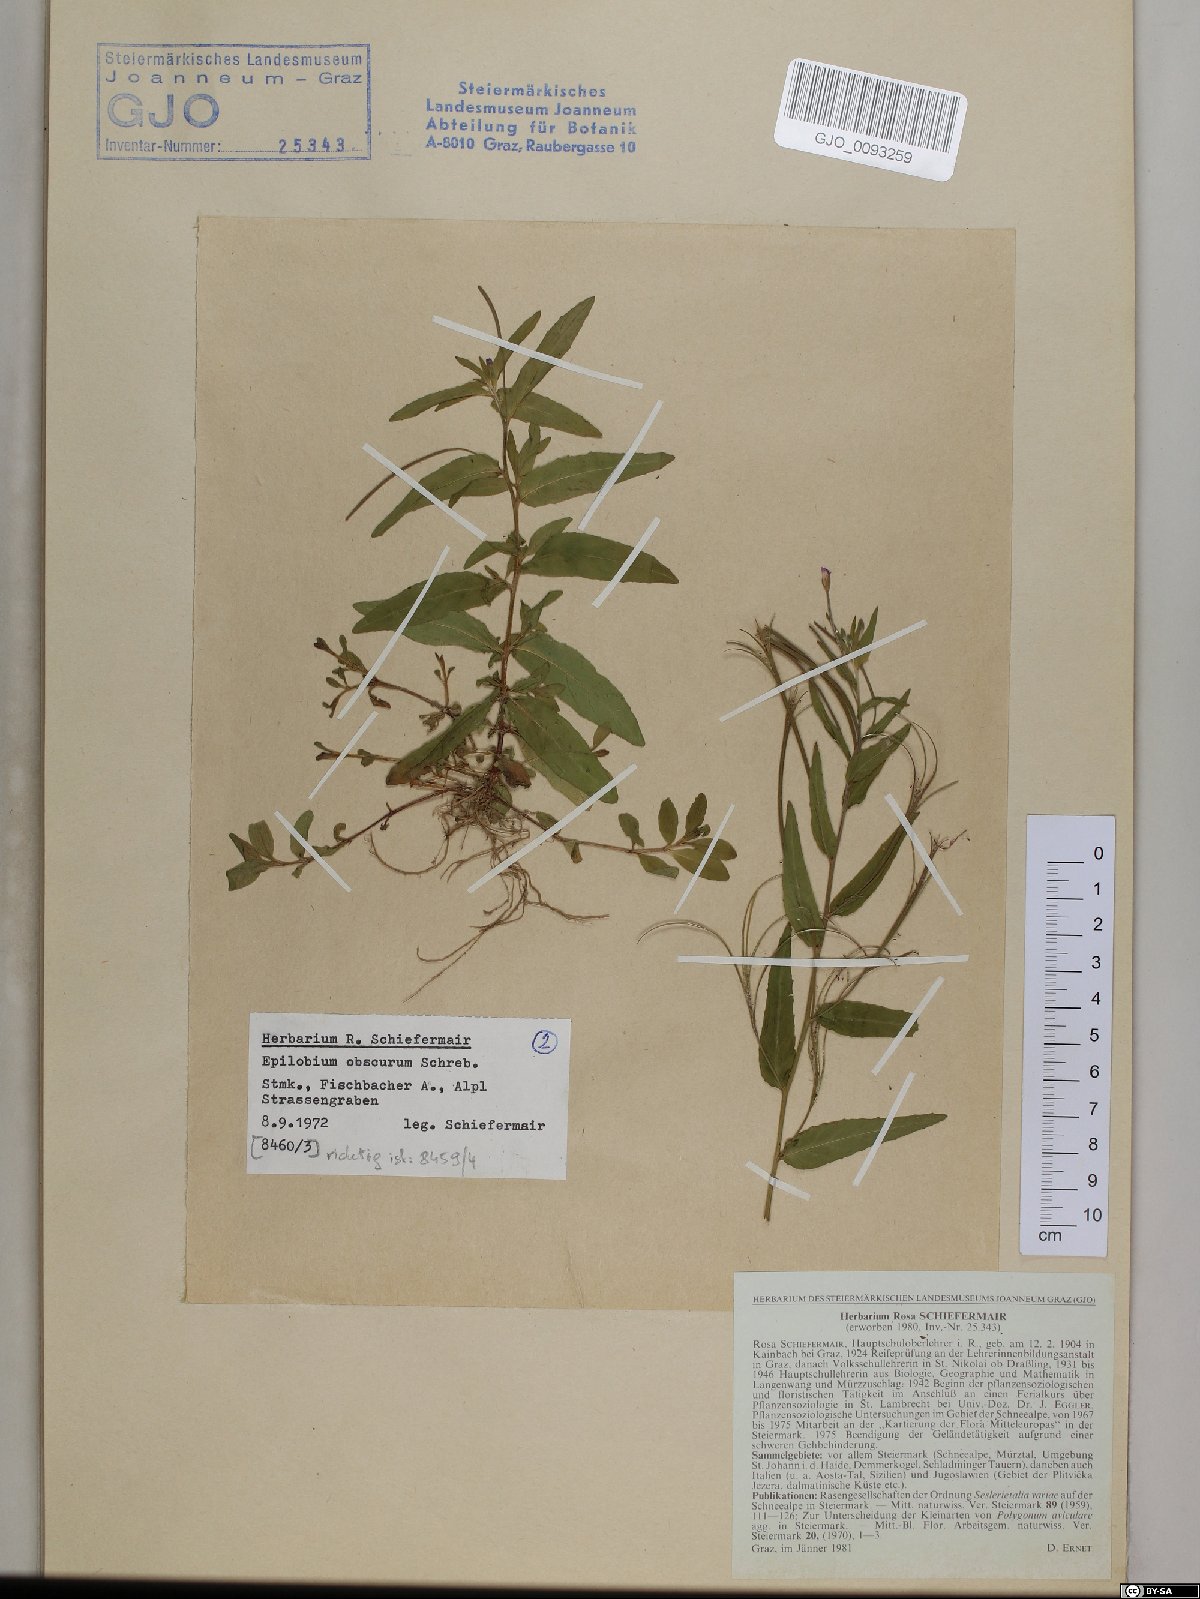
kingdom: Plantae
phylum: Tracheophyta
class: Magnoliopsida
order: Myrtales
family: Onagraceae
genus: Epilobium
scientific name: Epilobium obscurum
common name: Short-fruited willowherb
